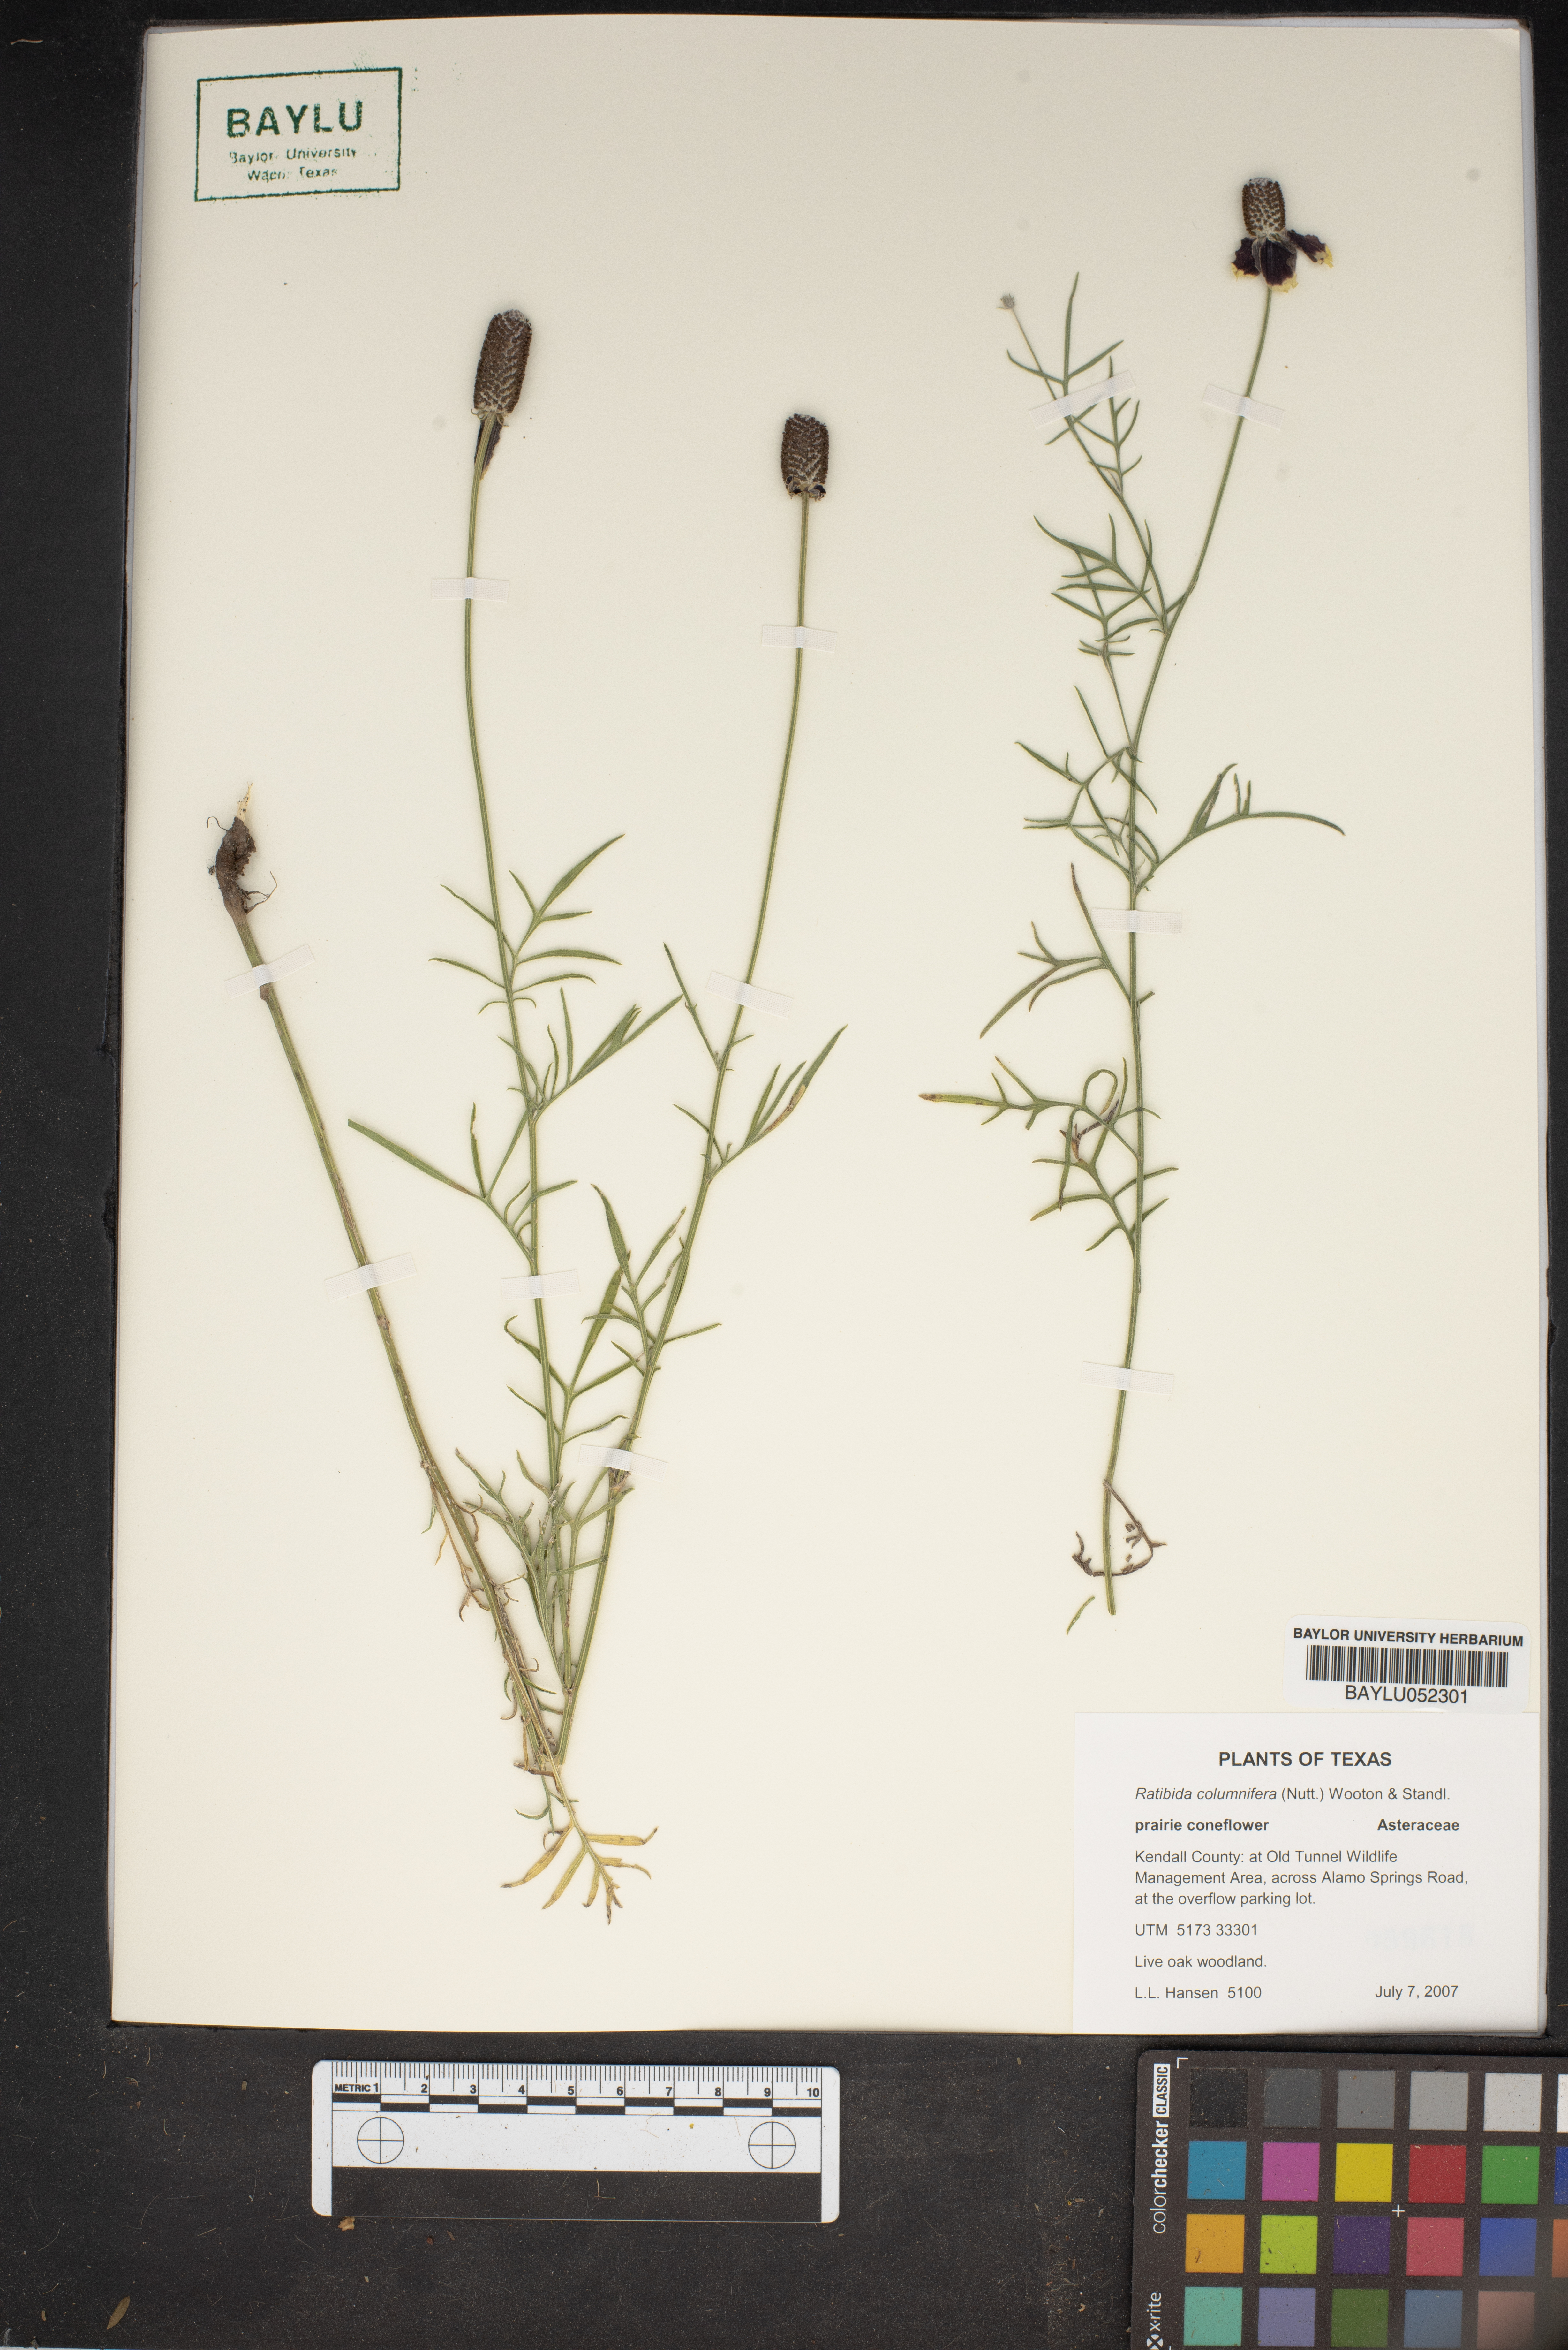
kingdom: Plantae
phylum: Tracheophyta
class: Magnoliopsida
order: Asterales
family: Asteraceae
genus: Ratibida
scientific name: Ratibida columnifera
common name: Prairie coneflower
